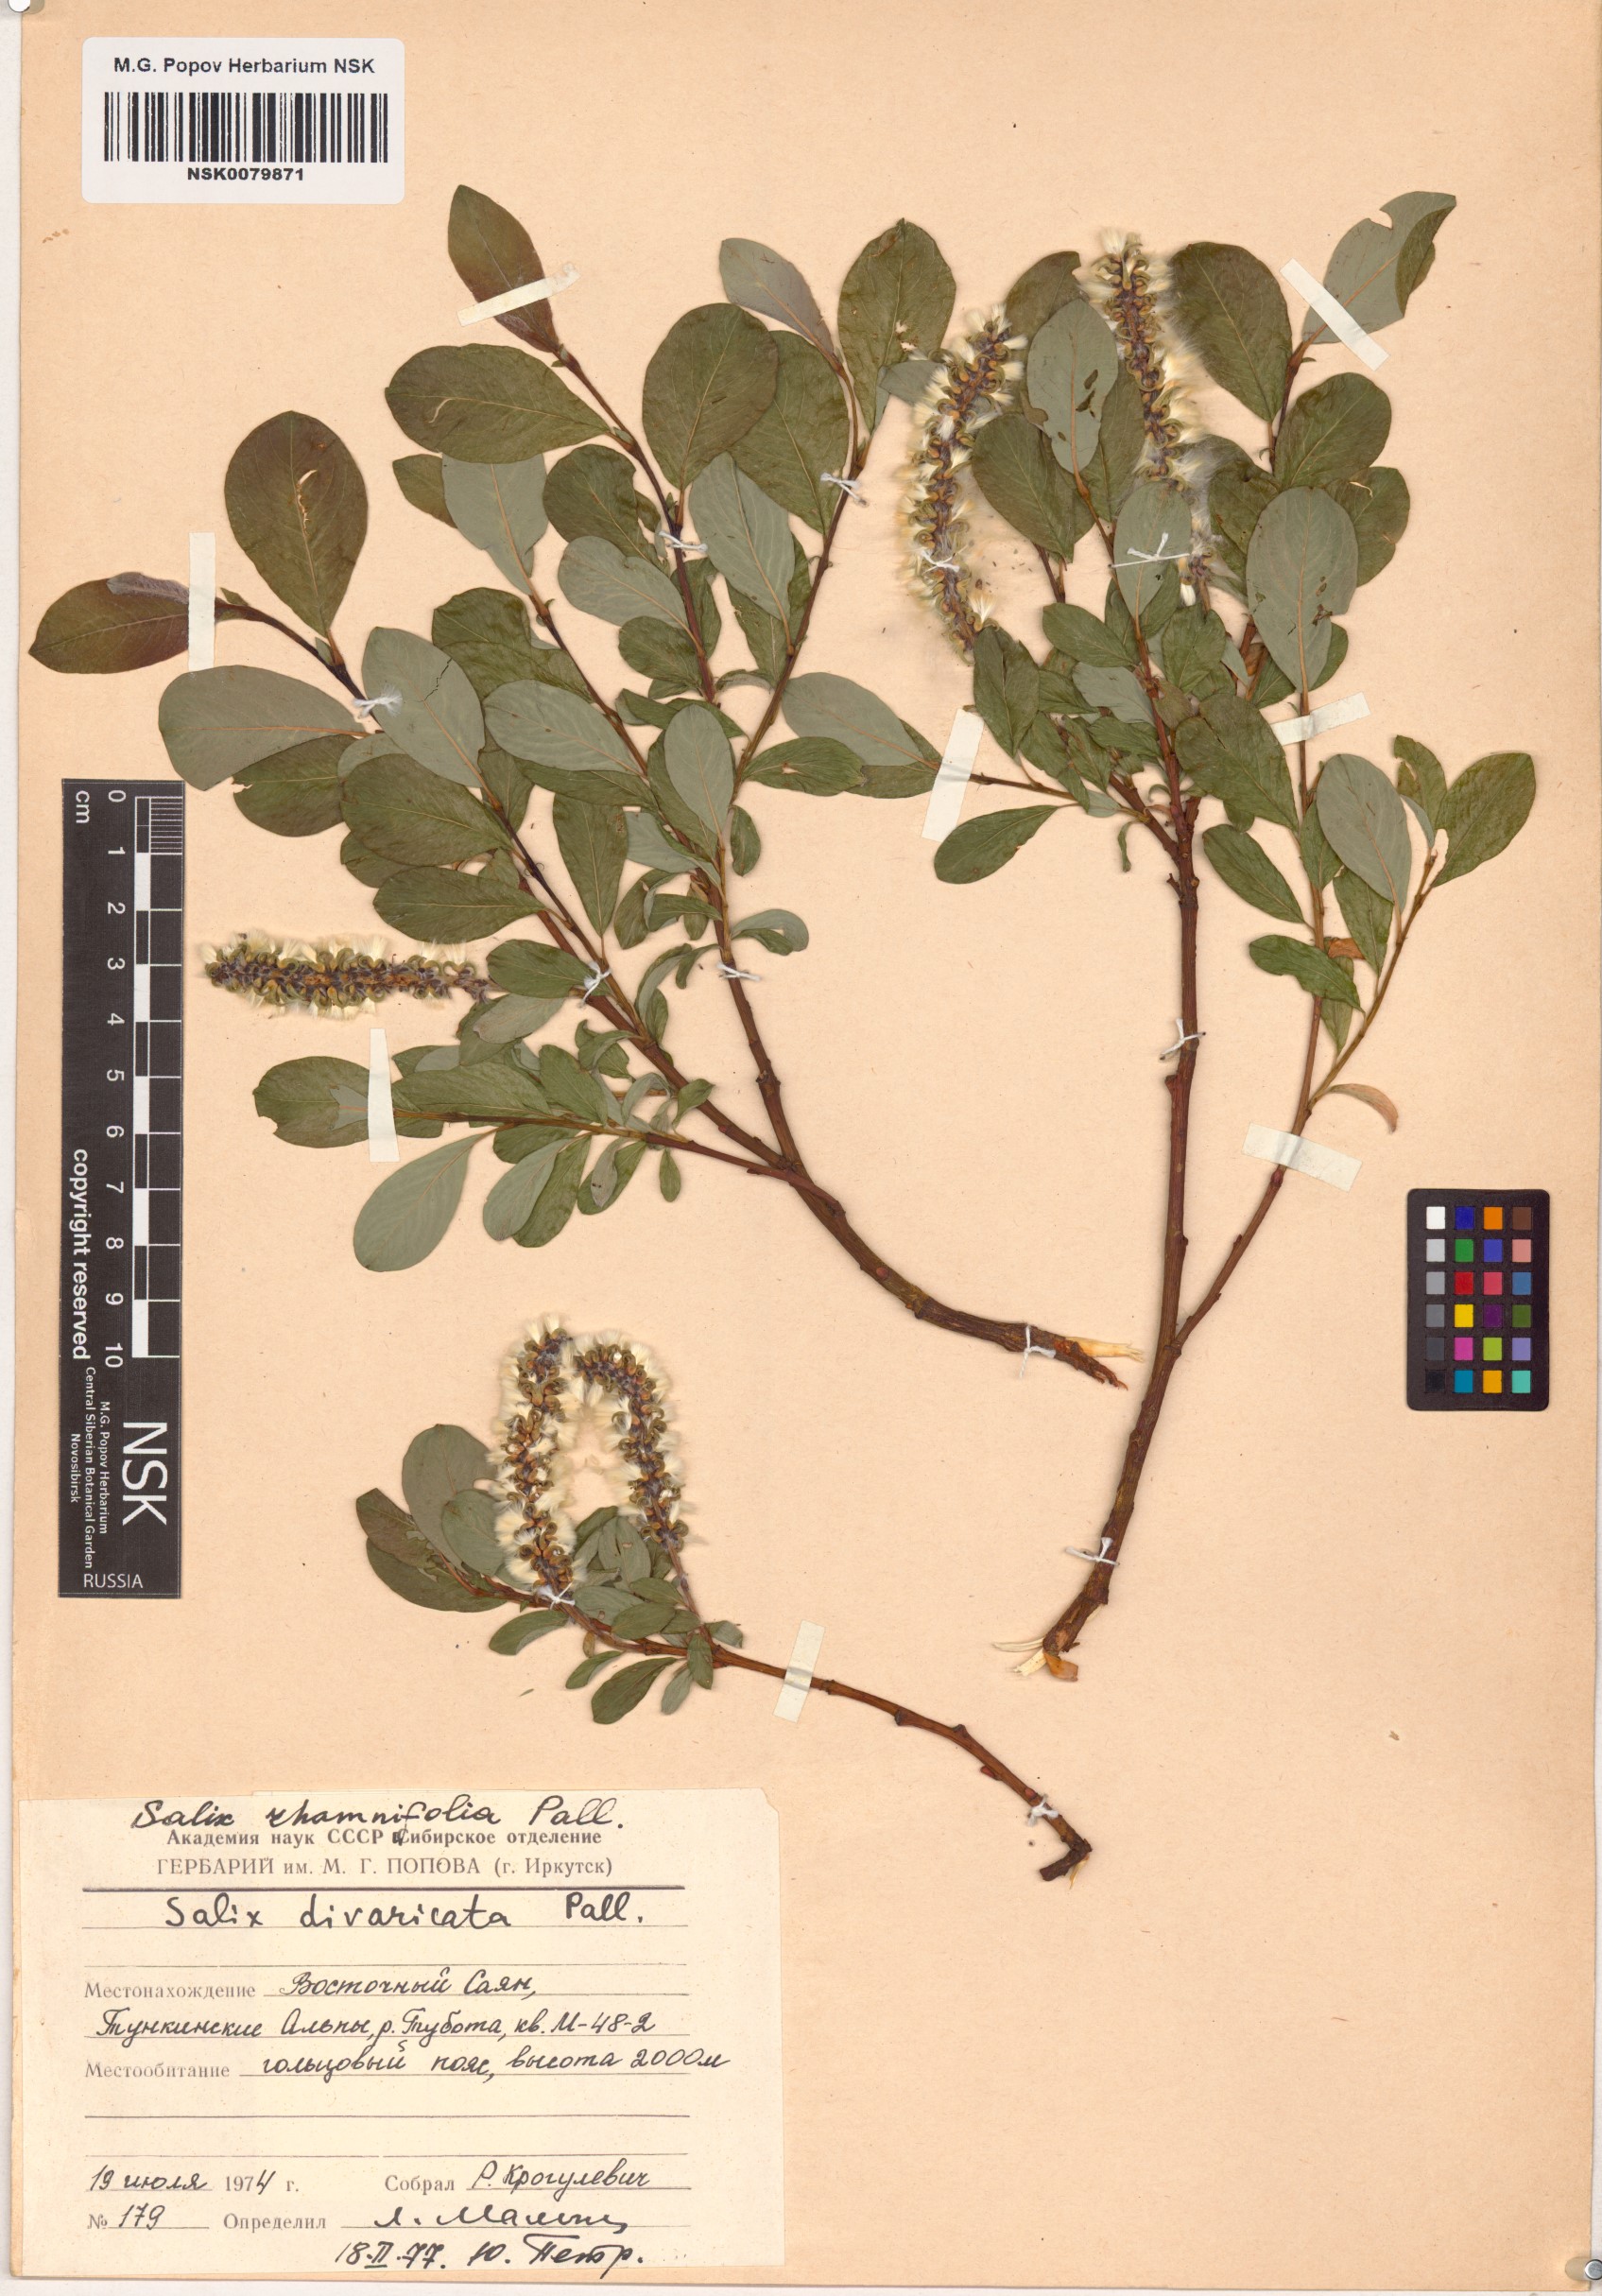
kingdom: Plantae
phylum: Tracheophyta
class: Magnoliopsida
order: Malpighiales
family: Salicaceae
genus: Salix
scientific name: Salix rhamnifolia
